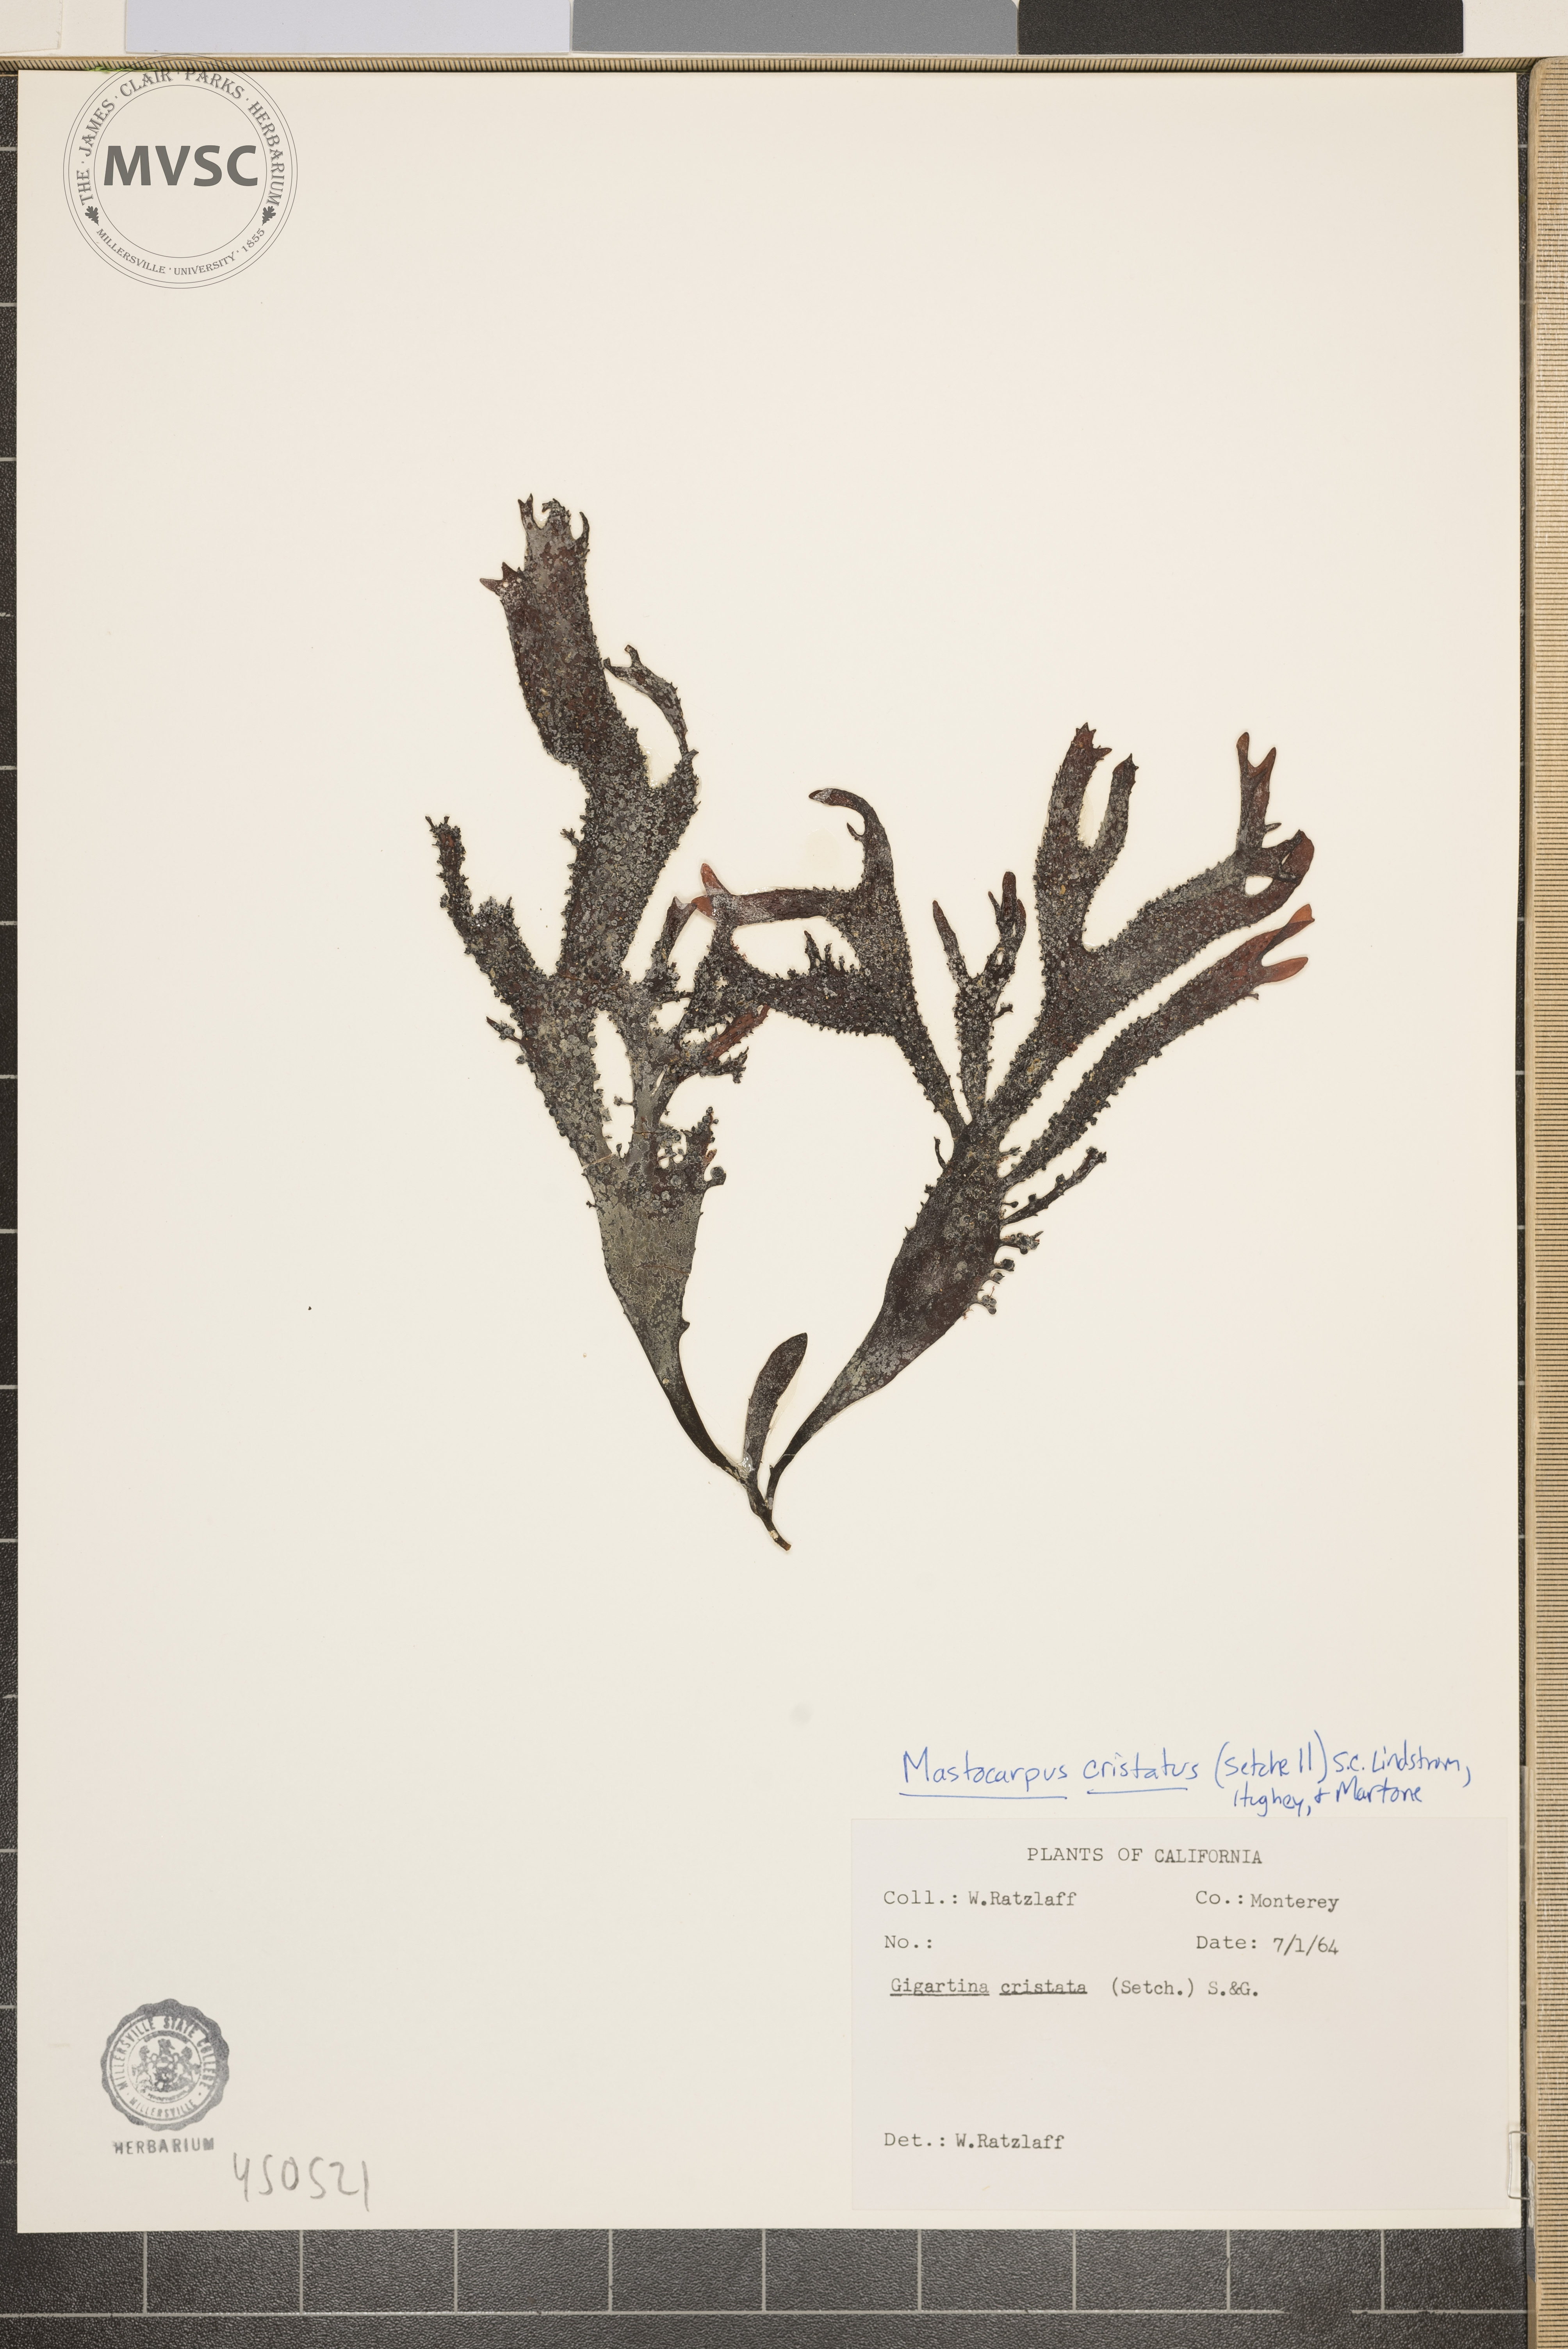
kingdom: Plantae
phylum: Rhodophyta
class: Florideophyceae
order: Gigartinales
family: Phyllophoraceae
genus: Mastocarpus
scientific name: Mastocarpus cristatus
